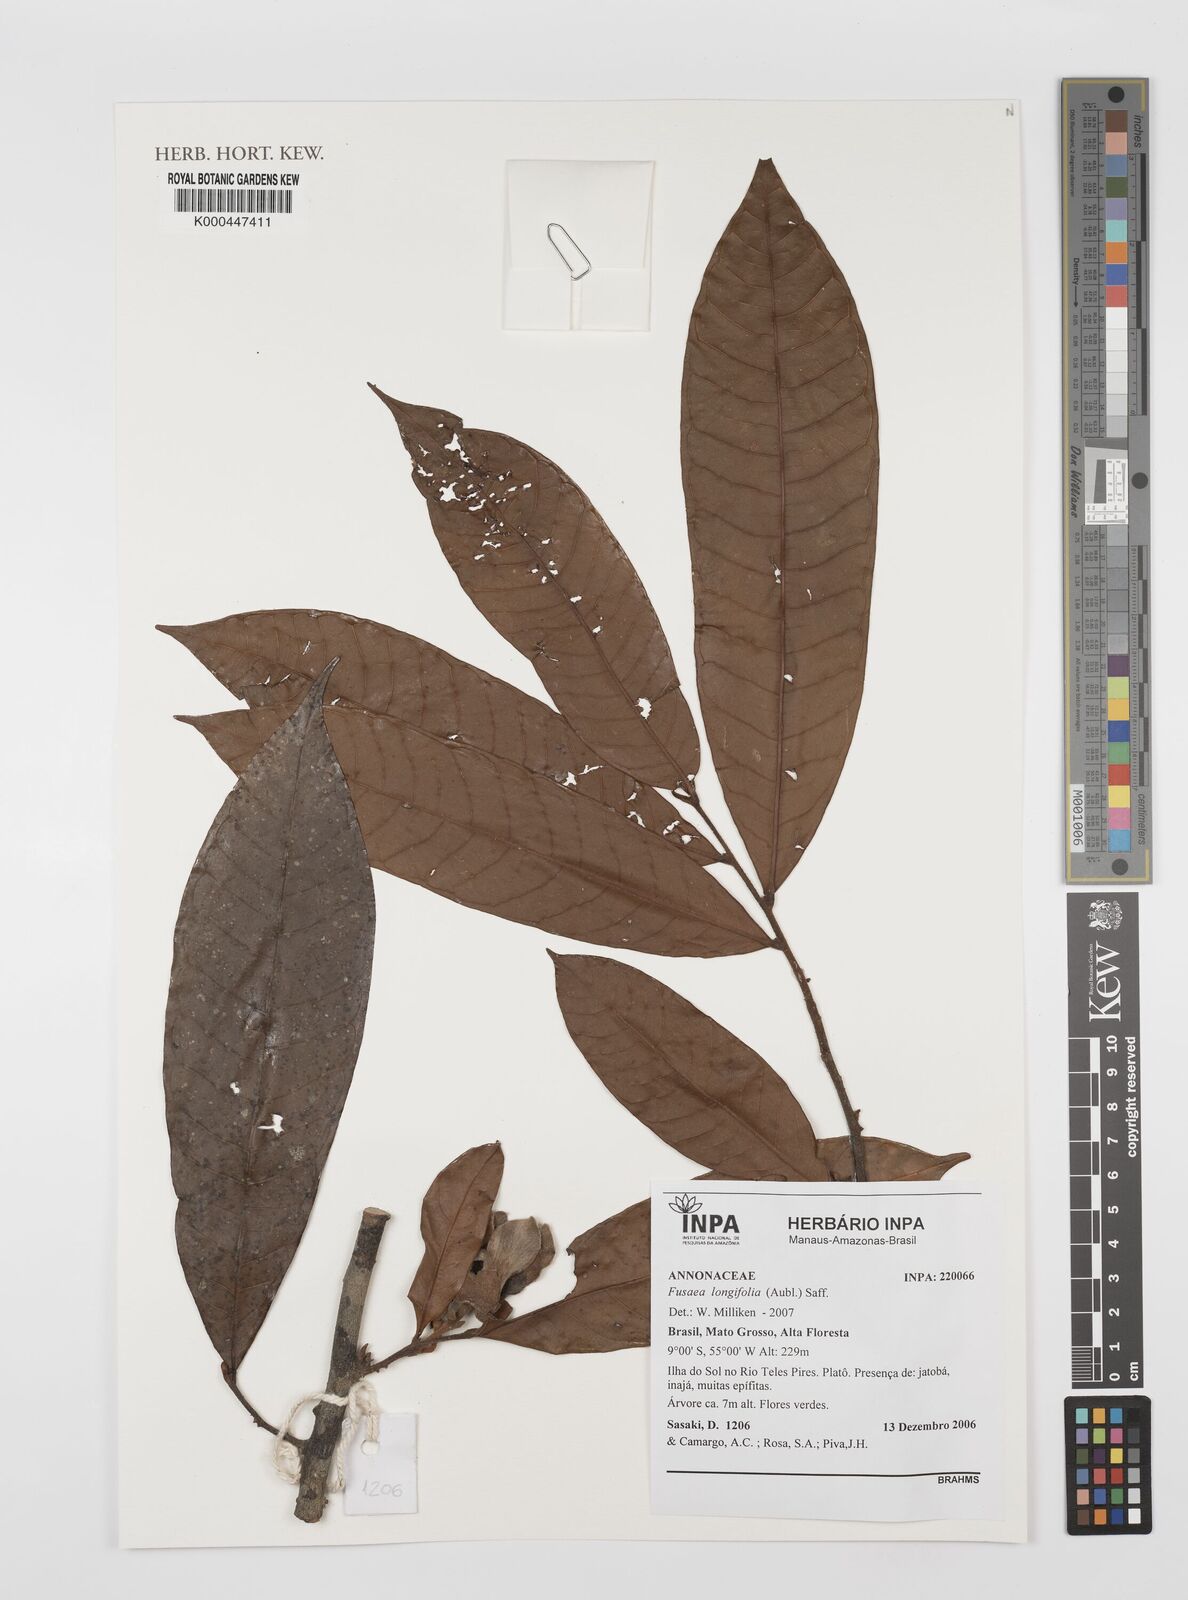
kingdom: Plantae
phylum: Tracheophyta
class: Magnoliopsida
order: Magnoliales
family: Annonaceae
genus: Fusaea
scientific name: Fusaea longifolia
